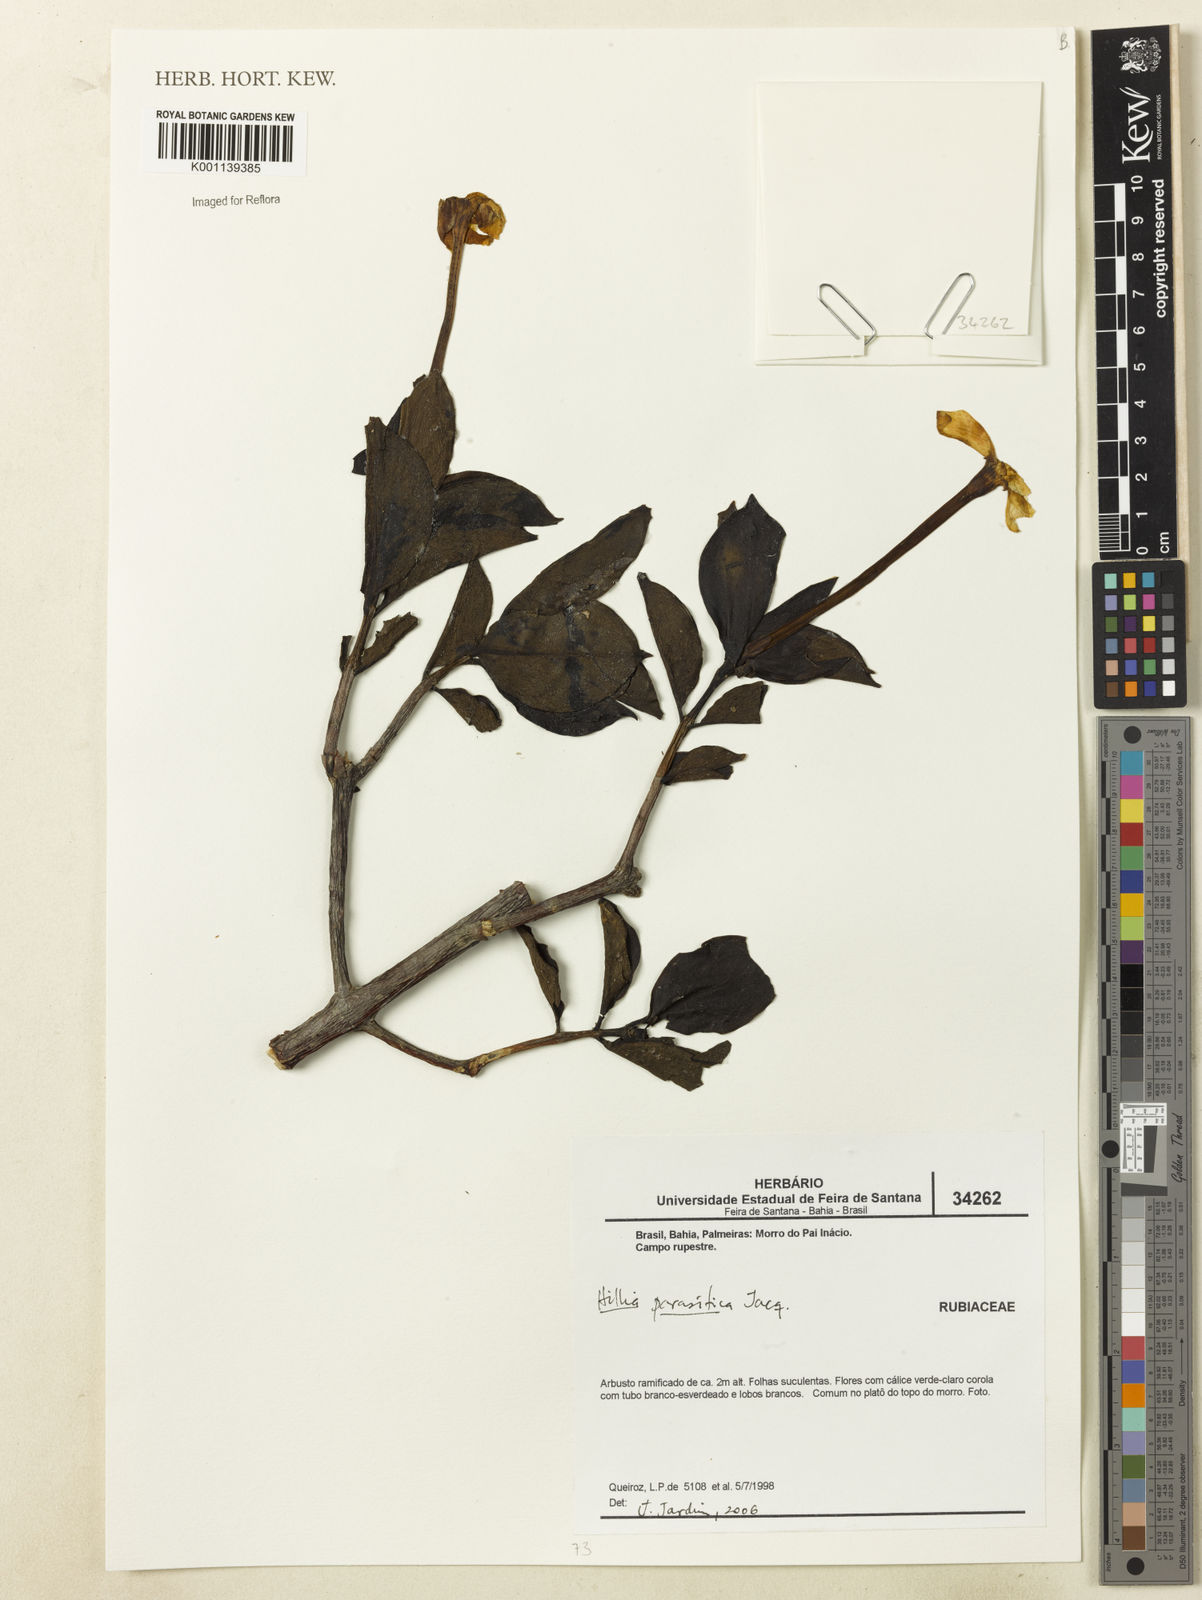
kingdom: Plantae
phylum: Tracheophyta
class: Magnoliopsida
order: Gentianales
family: Rubiaceae
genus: Hillia
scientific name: Hillia parasitica
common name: Morning star
